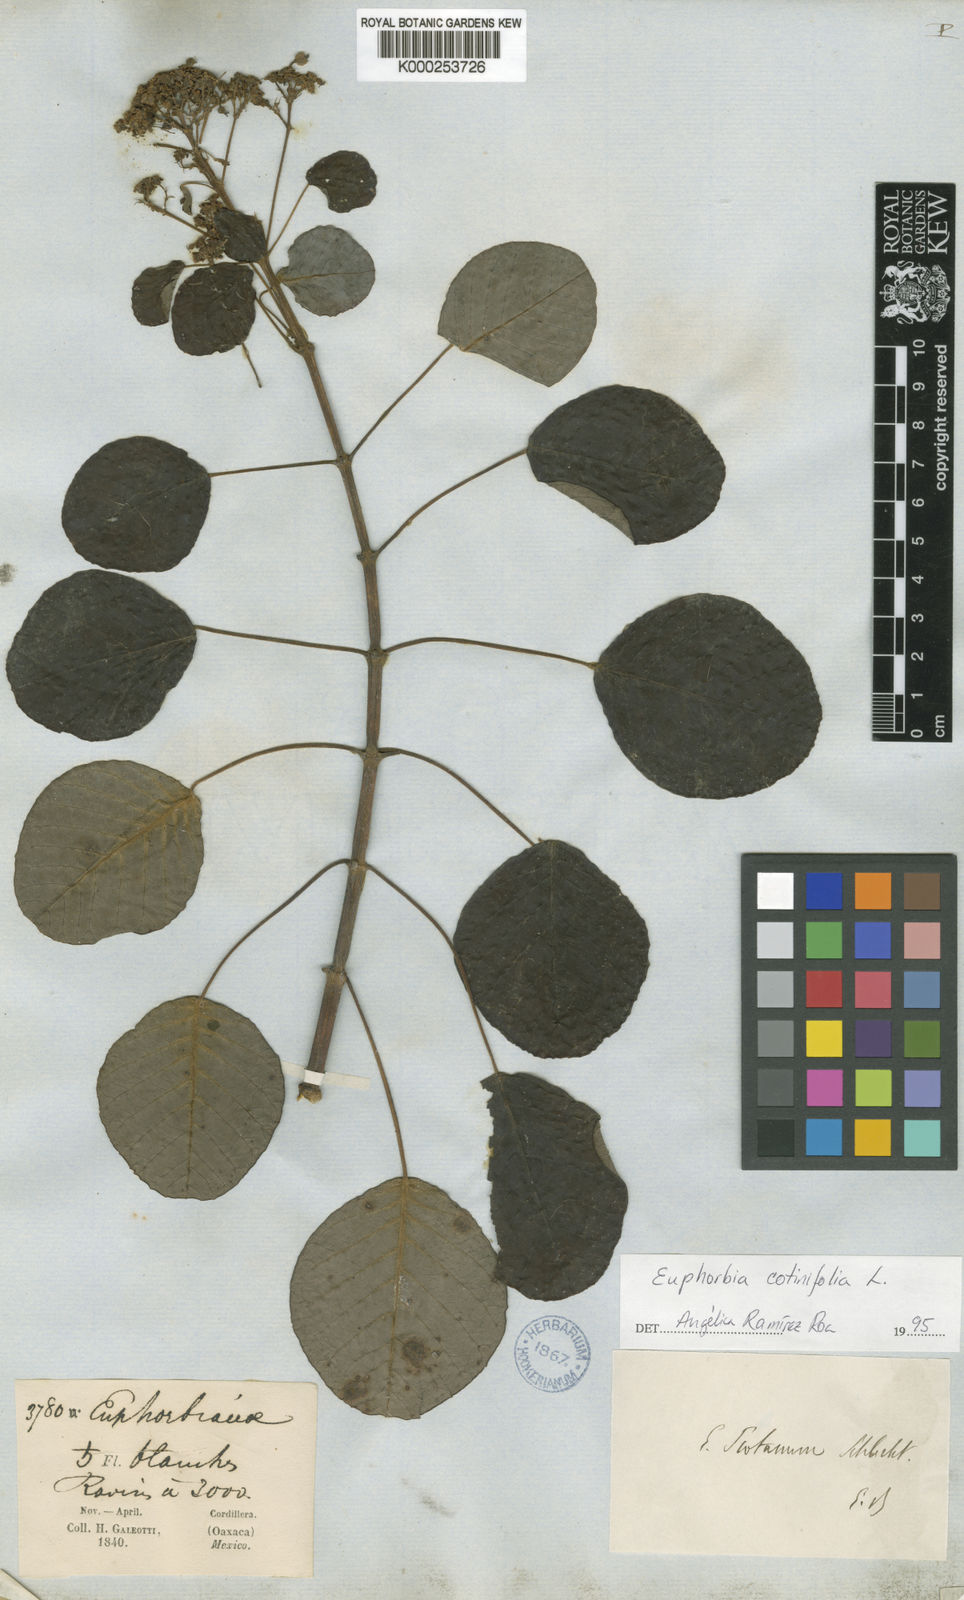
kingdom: Plantae
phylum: Tracheophyta
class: Magnoliopsida
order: Malpighiales
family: Euphorbiaceae
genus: Euphorbia
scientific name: Euphorbia cotinifolia
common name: Tropical smokebush
